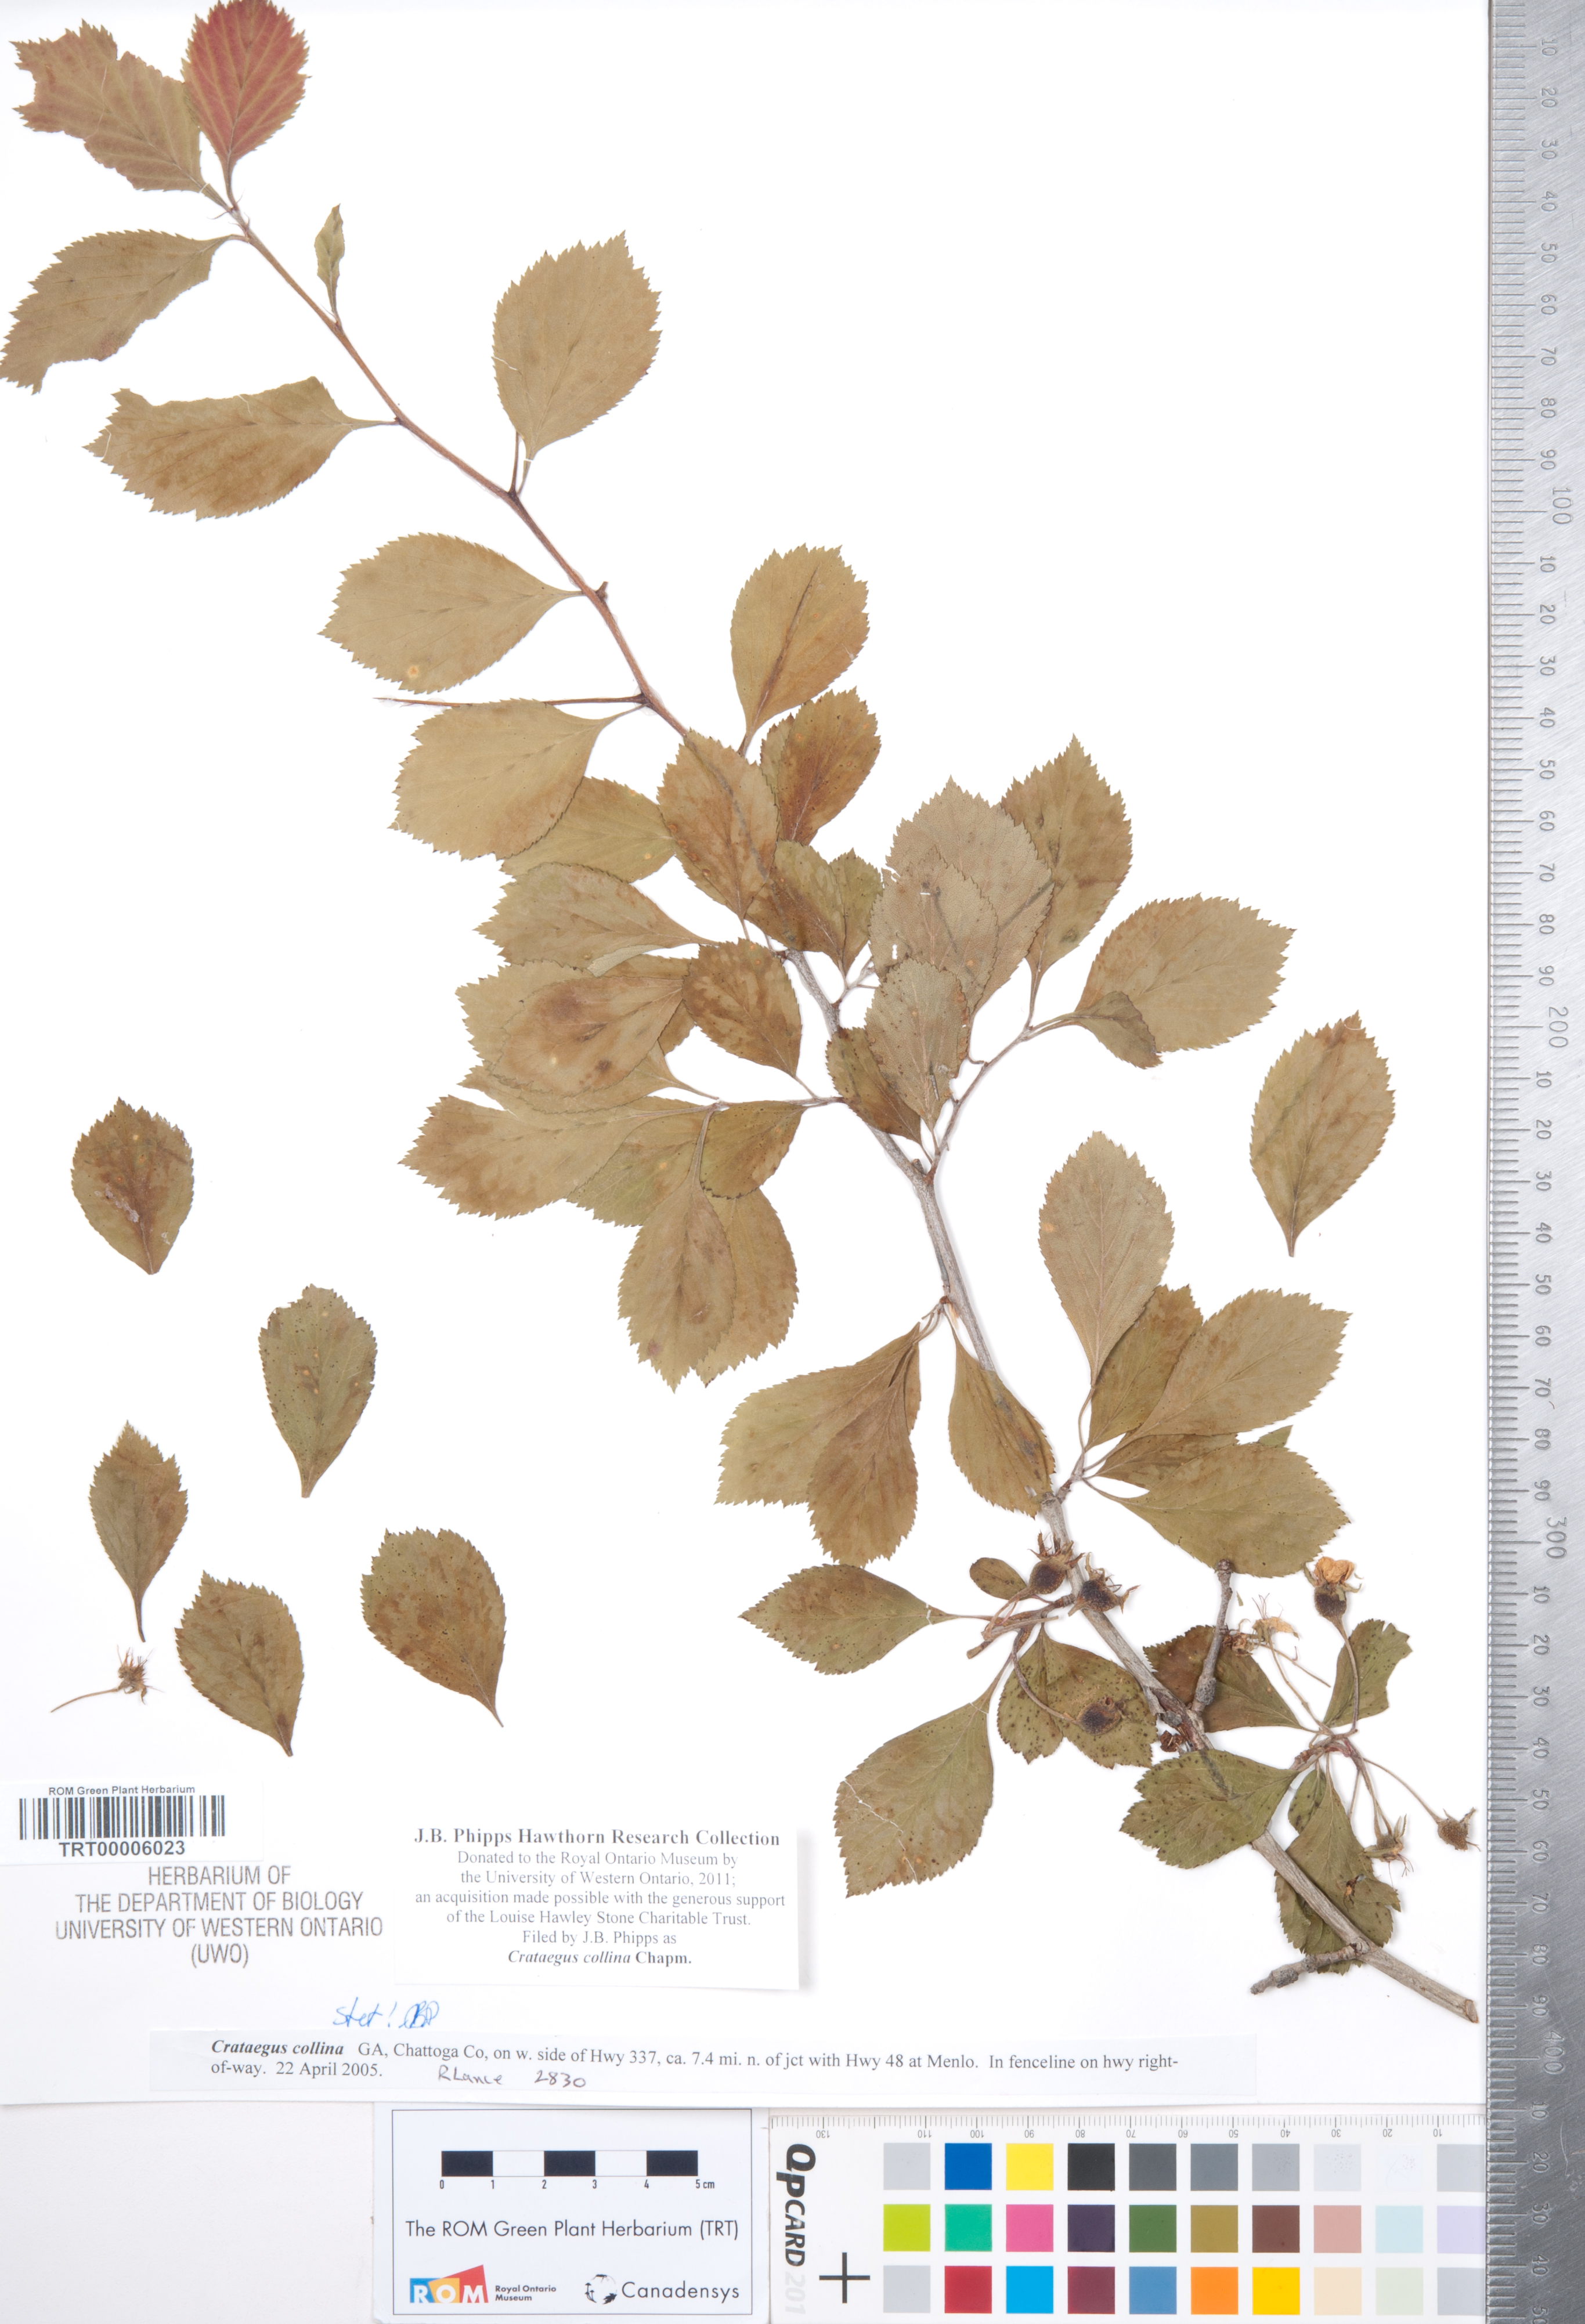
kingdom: Plantae
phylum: Tracheophyta
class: Magnoliopsida
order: Rosales
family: Rosaceae
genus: Crataegus
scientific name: Crataegus collina
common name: Hillside hawthorn
